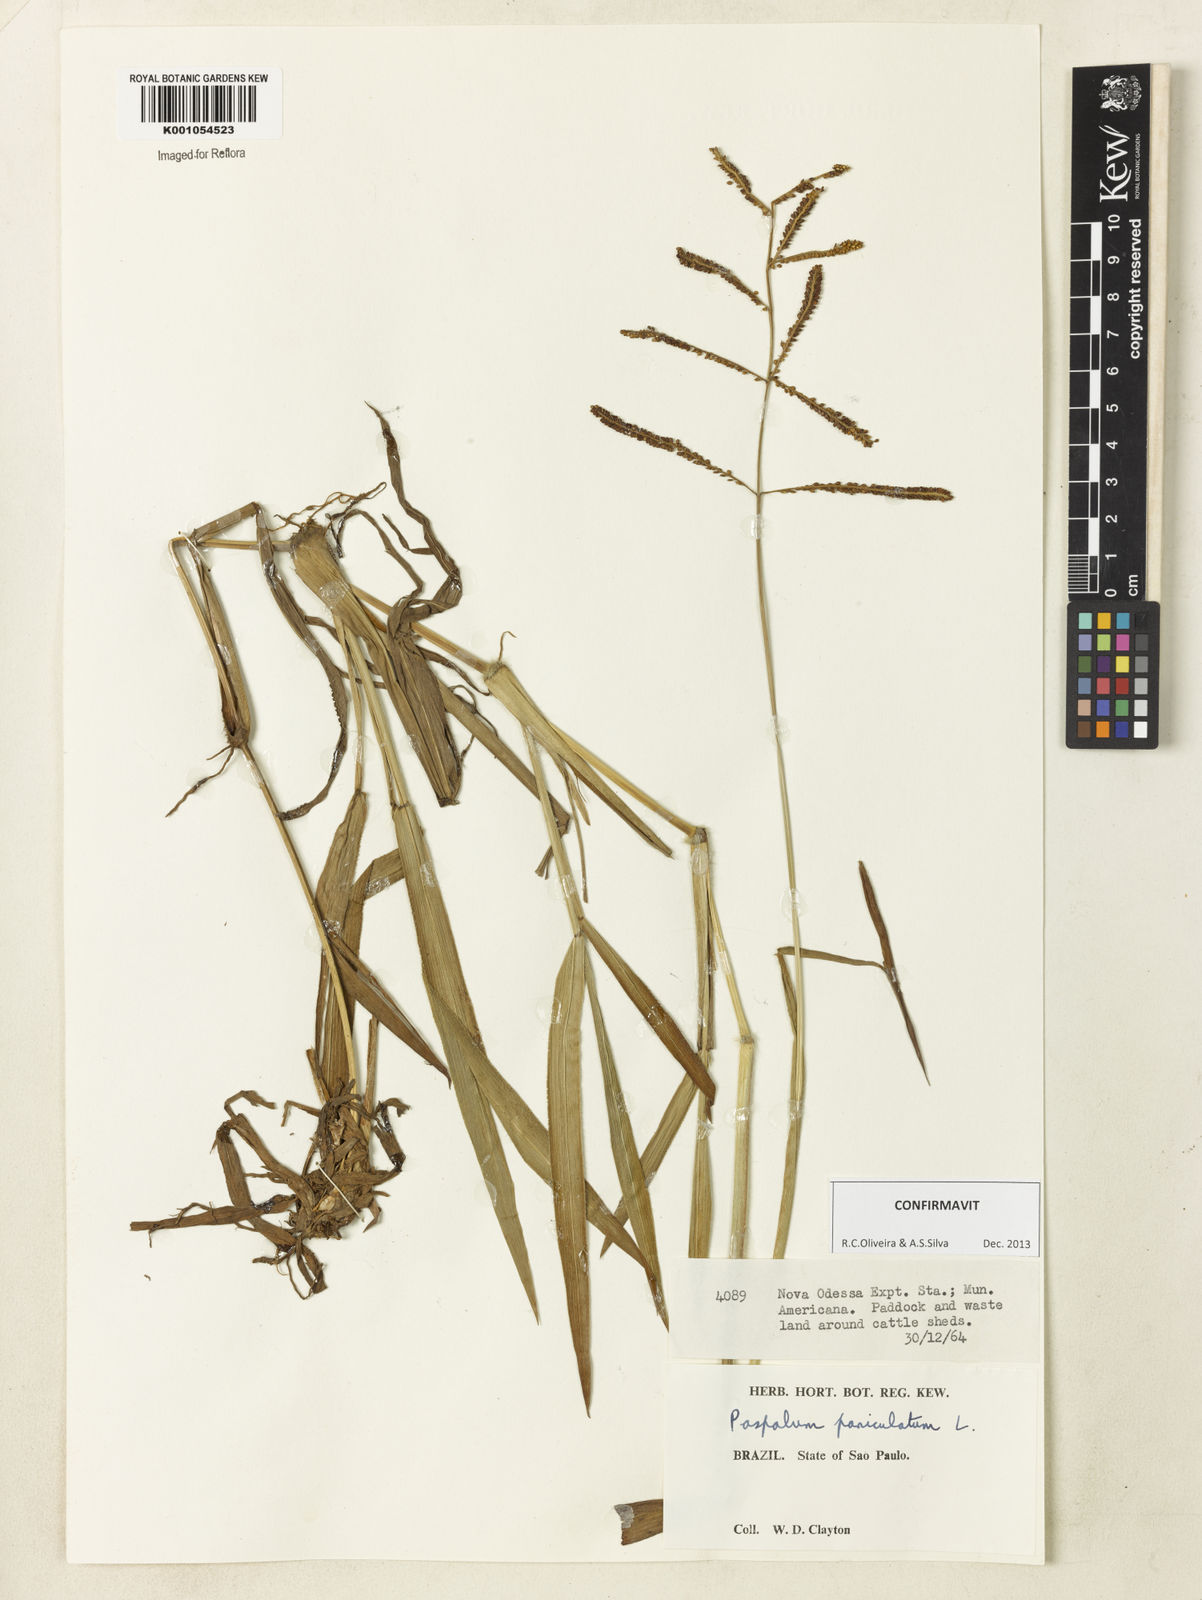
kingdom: Plantae
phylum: Tracheophyta
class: Liliopsida
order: Poales
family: Poaceae
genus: Paspalum
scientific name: Paspalum paniculatum
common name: Arrocillo
